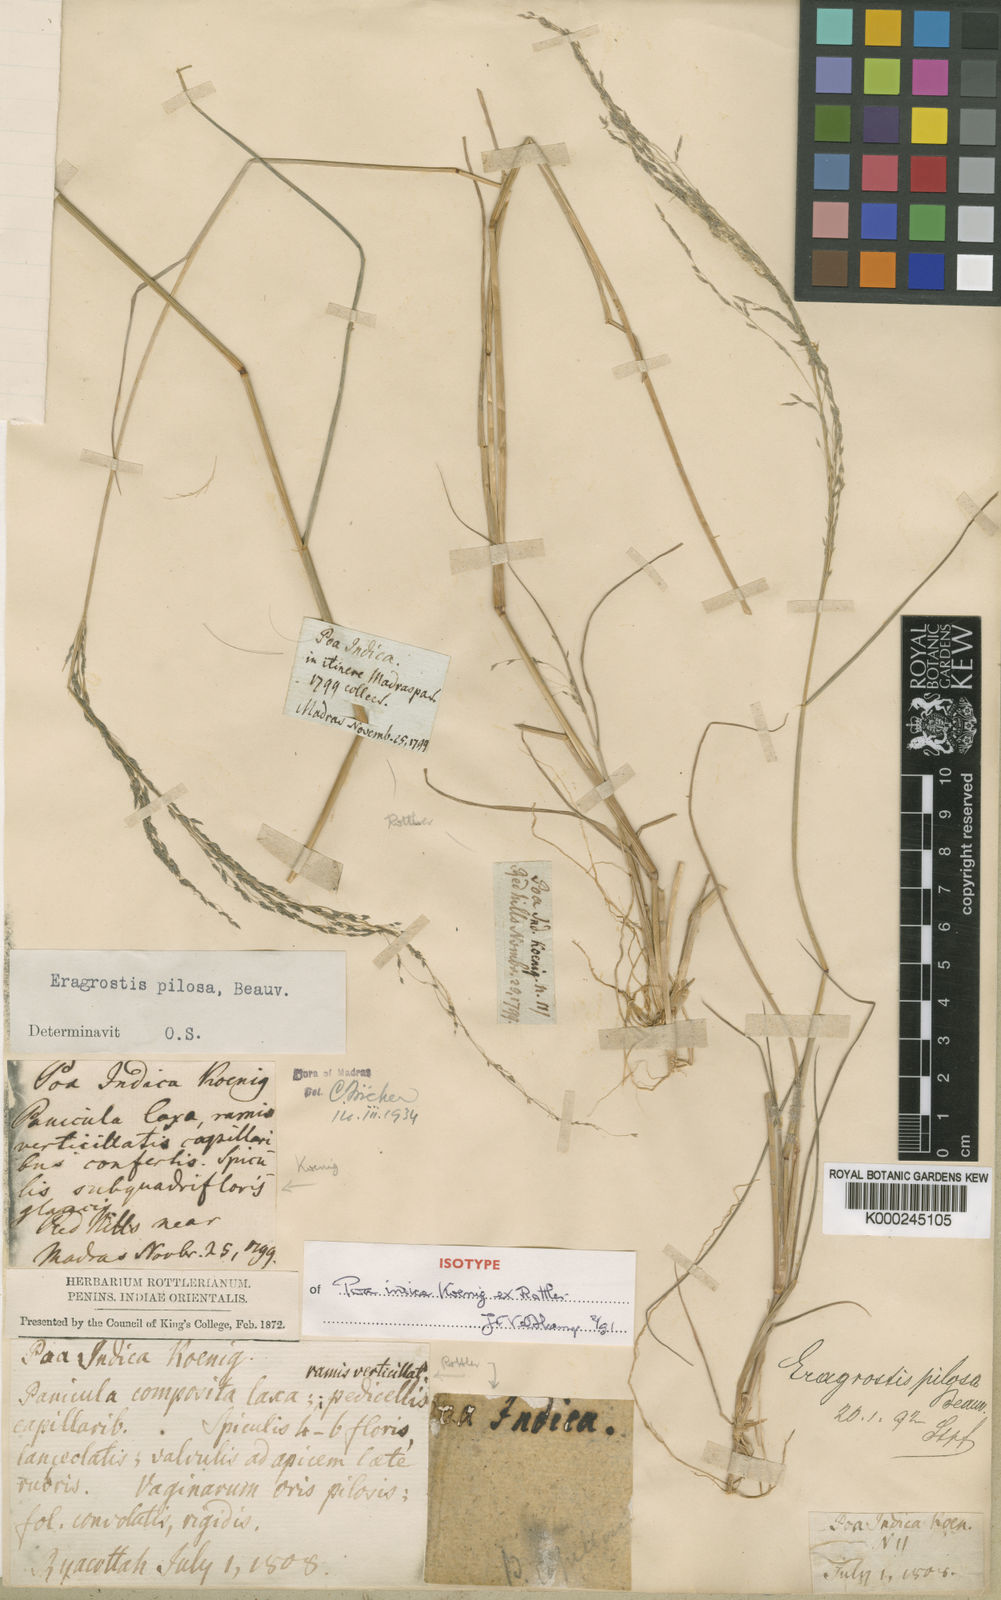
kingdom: Plantae
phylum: Tracheophyta
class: Liliopsida
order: Poales
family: Poaceae
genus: Eragrostis
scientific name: Eragrostis pilosa
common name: Indian lovegrass
